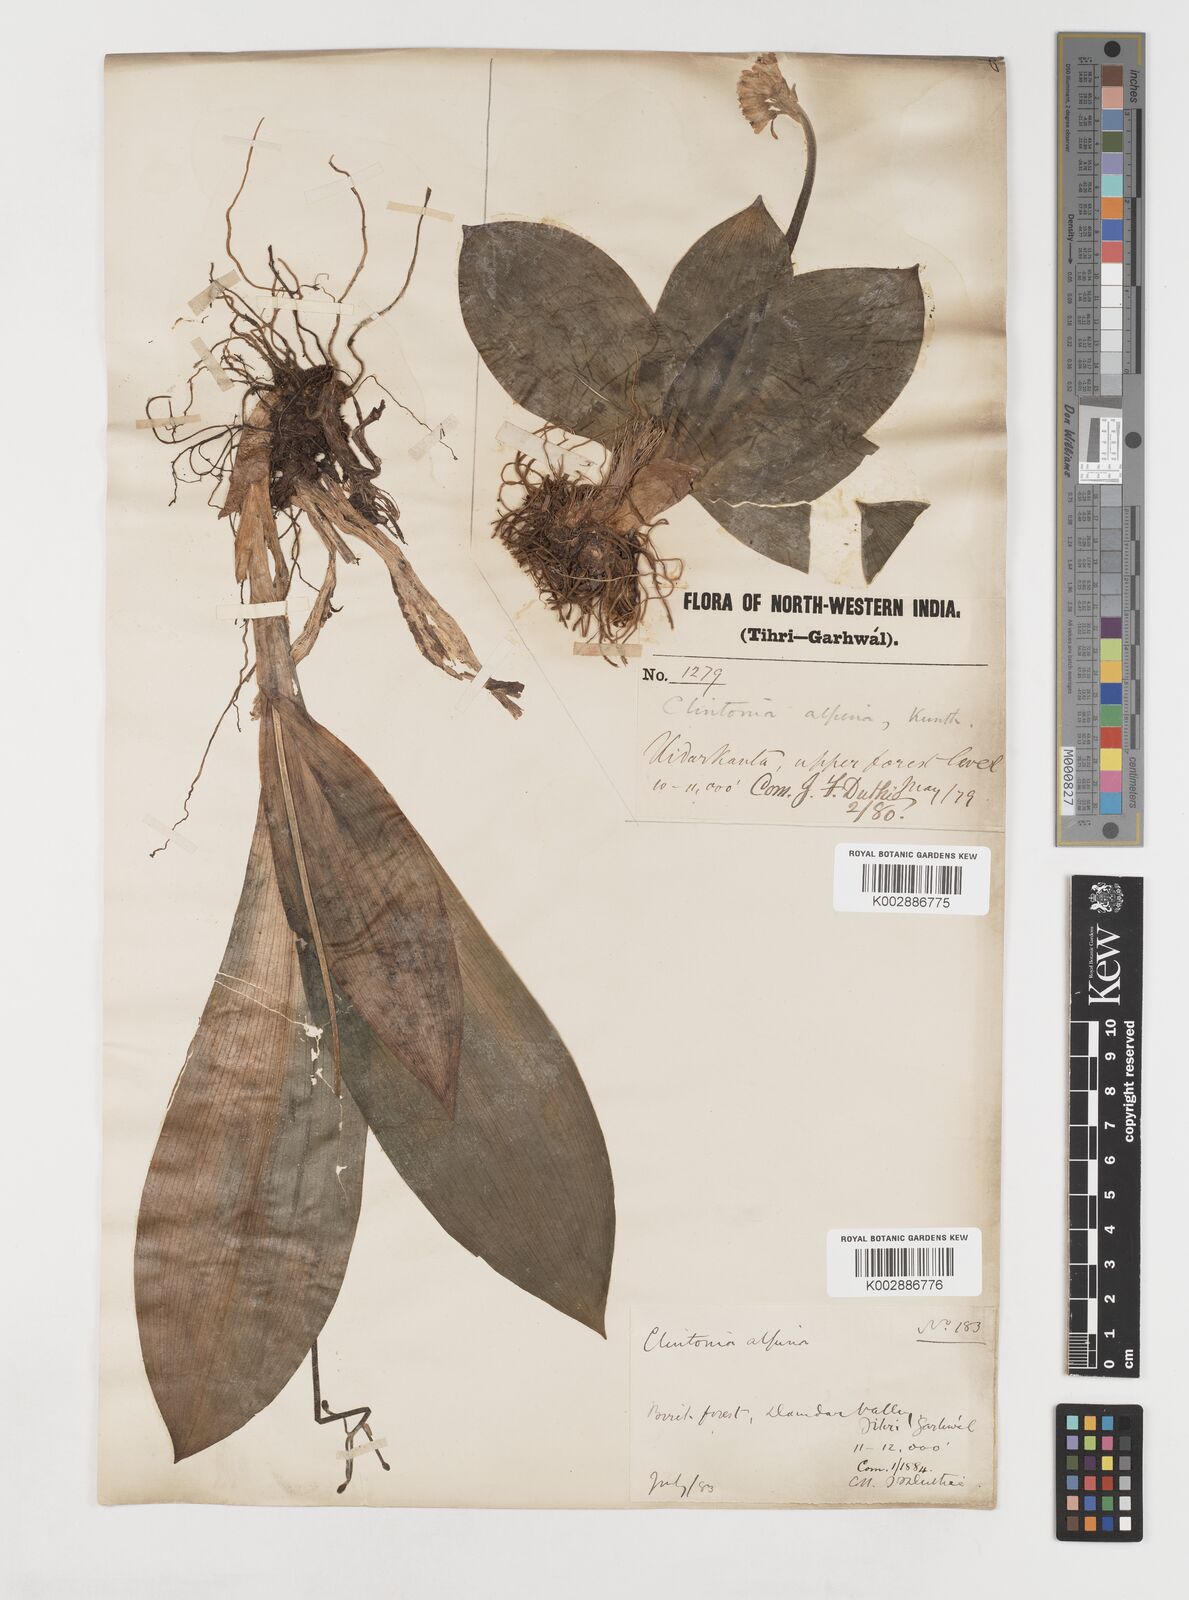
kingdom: Plantae
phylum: Tracheophyta
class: Liliopsida
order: Liliales
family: Liliaceae
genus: Clintonia
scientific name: Clintonia udensis
